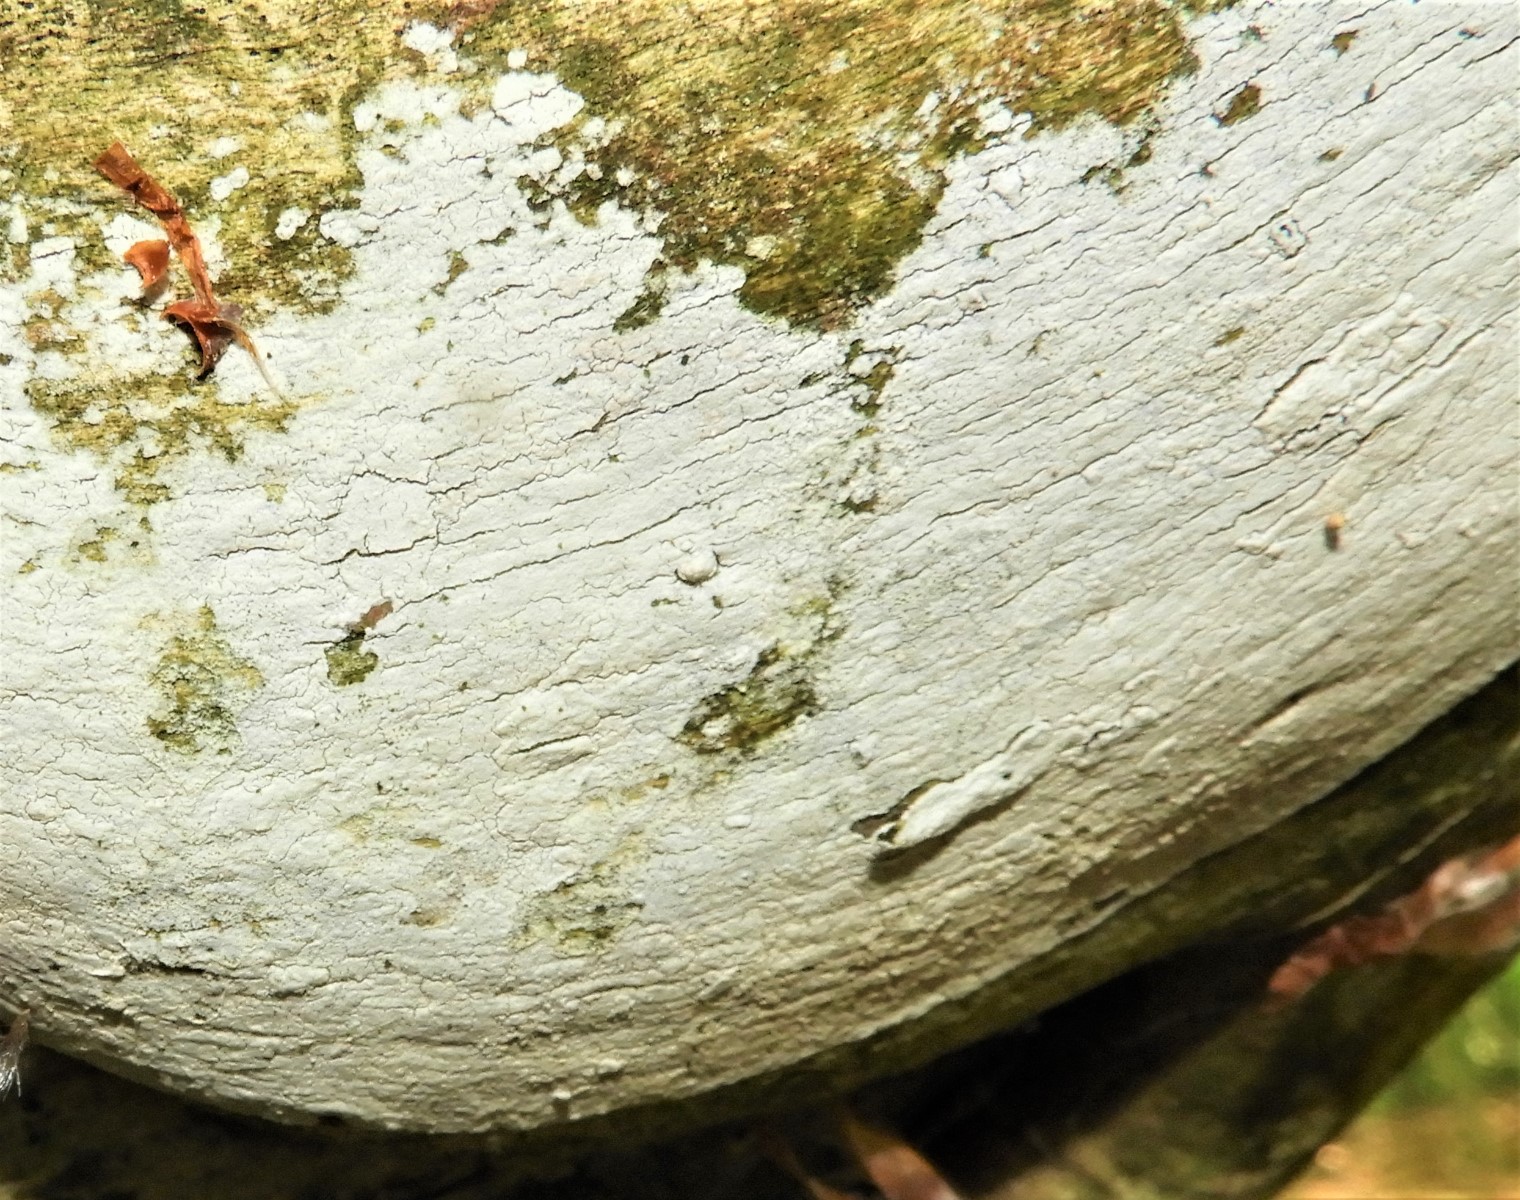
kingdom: Fungi
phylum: Basidiomycota
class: Agaricomycetes
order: Corticiales
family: Corticiaceae
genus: Lyomyces
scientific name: Lyomyces sambuci
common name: almindelig hyldehinde
